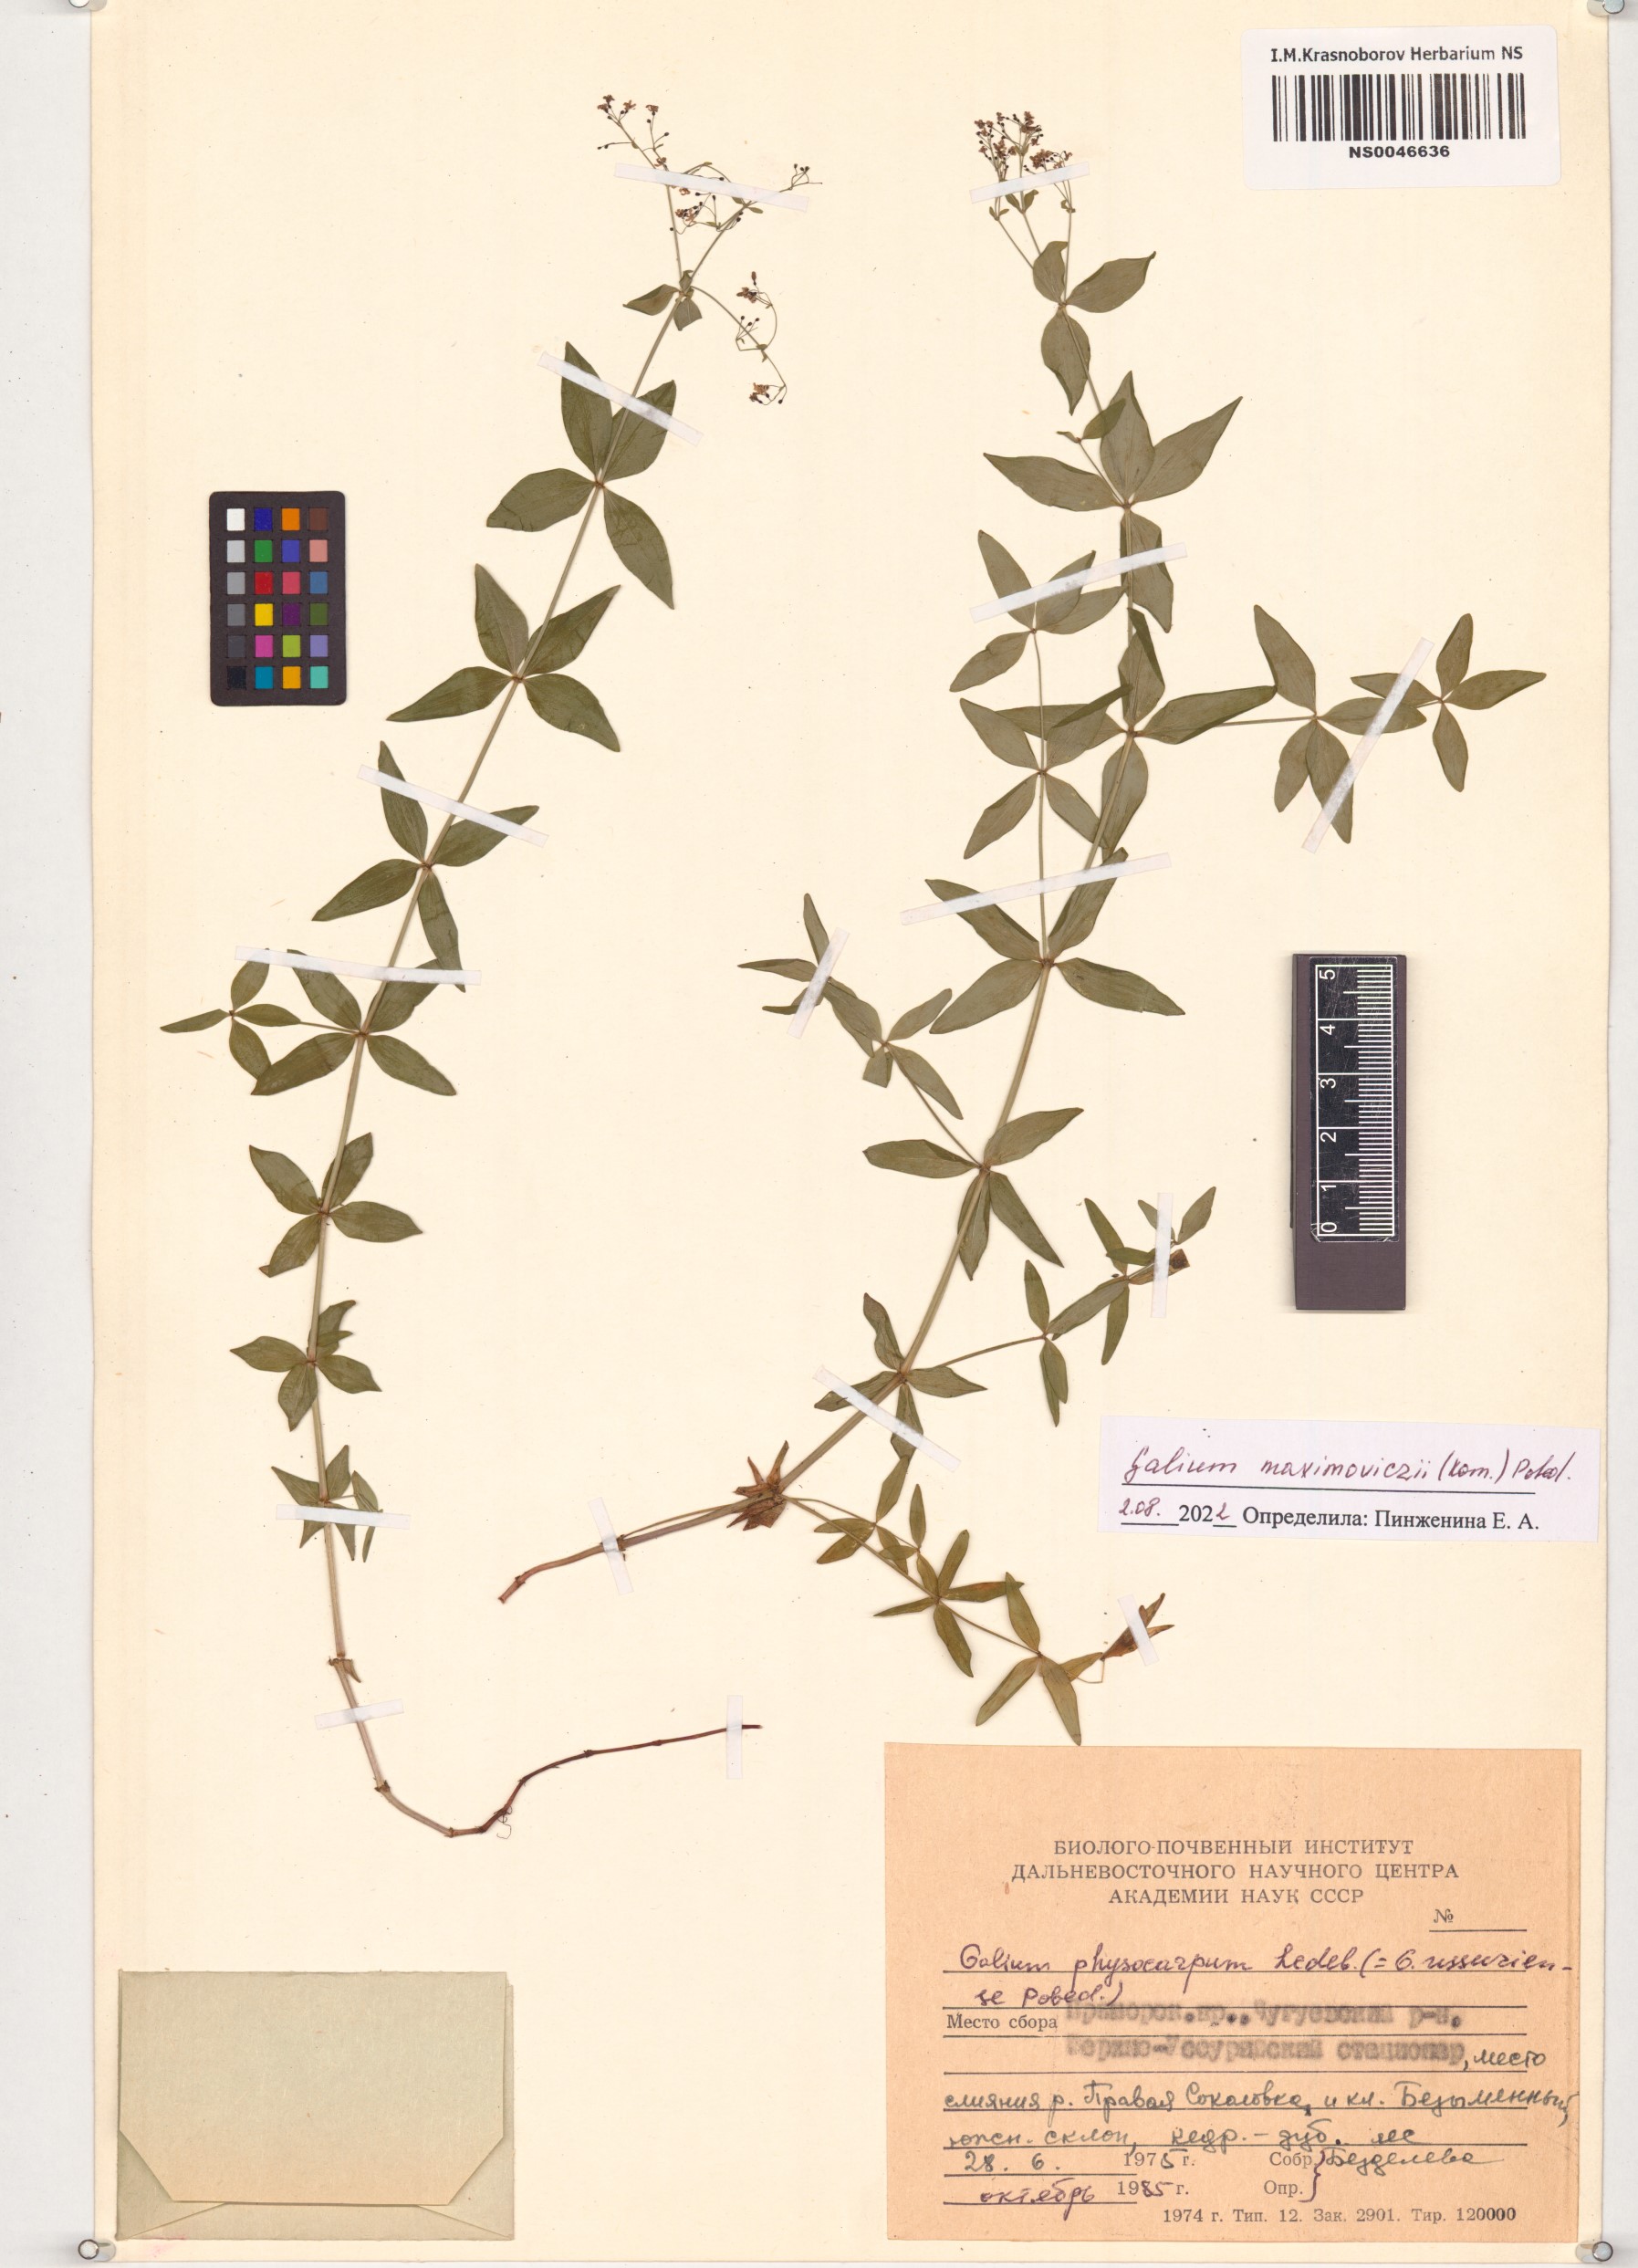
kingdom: Plantae
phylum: Tracheophyta
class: Magnoliopsida
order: Gentianales
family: Rubiaceae
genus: Galium
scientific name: Galium maximoviczii
